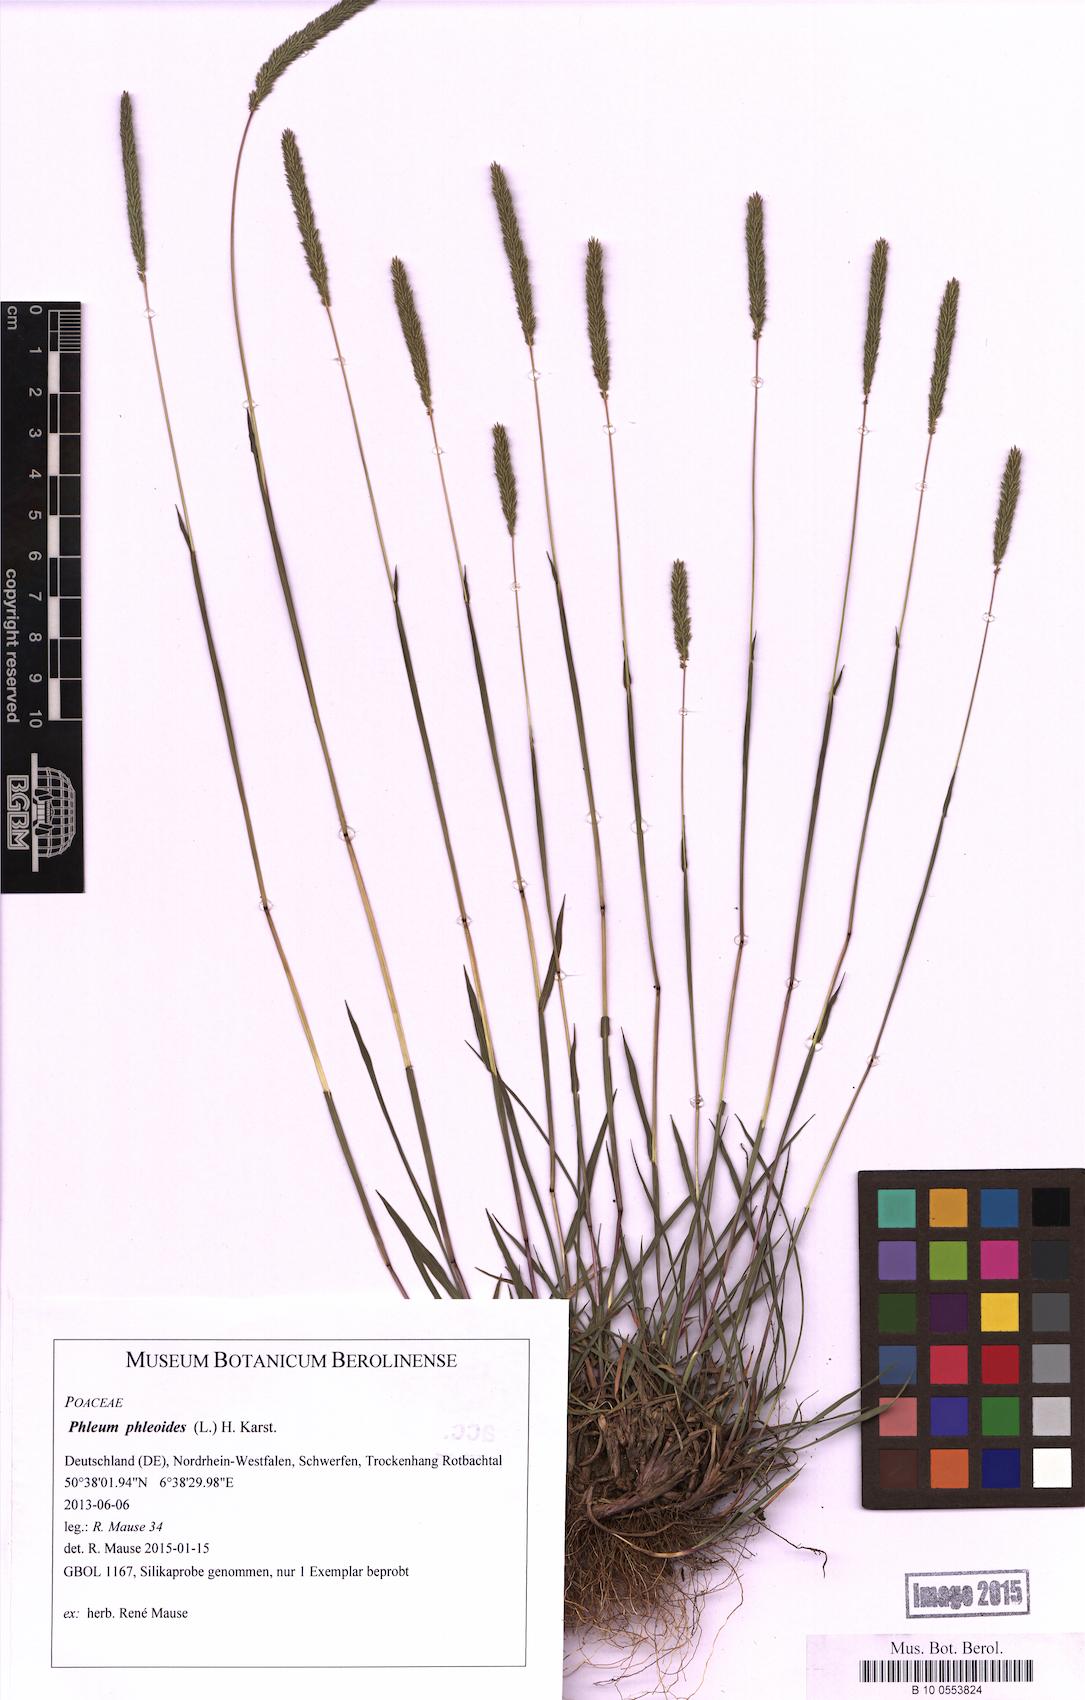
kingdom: Plantae
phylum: Tracheophyta
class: Liliopsida
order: Poales
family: Poaceae
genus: Phleum
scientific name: Phleum phleoides
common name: Purple-stem cat's-tail
